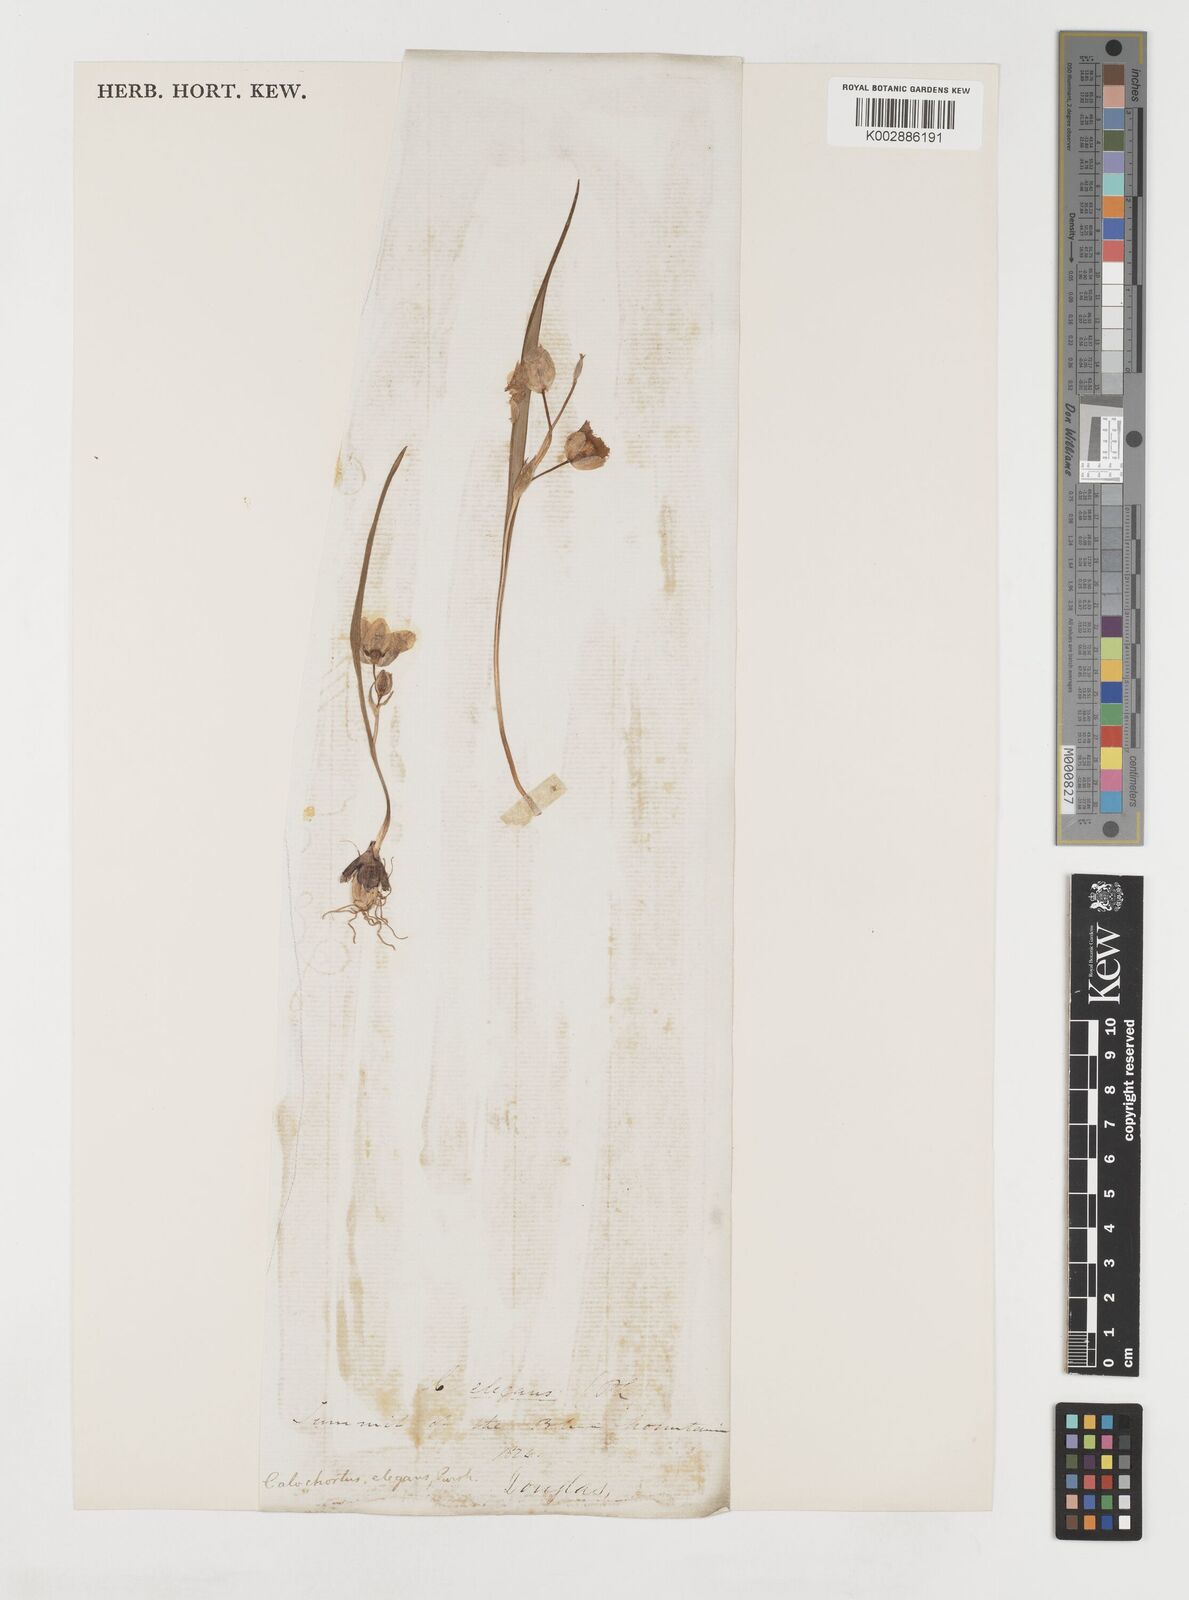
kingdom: Plantae
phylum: Tracheophyta
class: Liliopsida
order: Liliales
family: Liliaceae
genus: Calochortus
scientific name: Calochortus elegans
